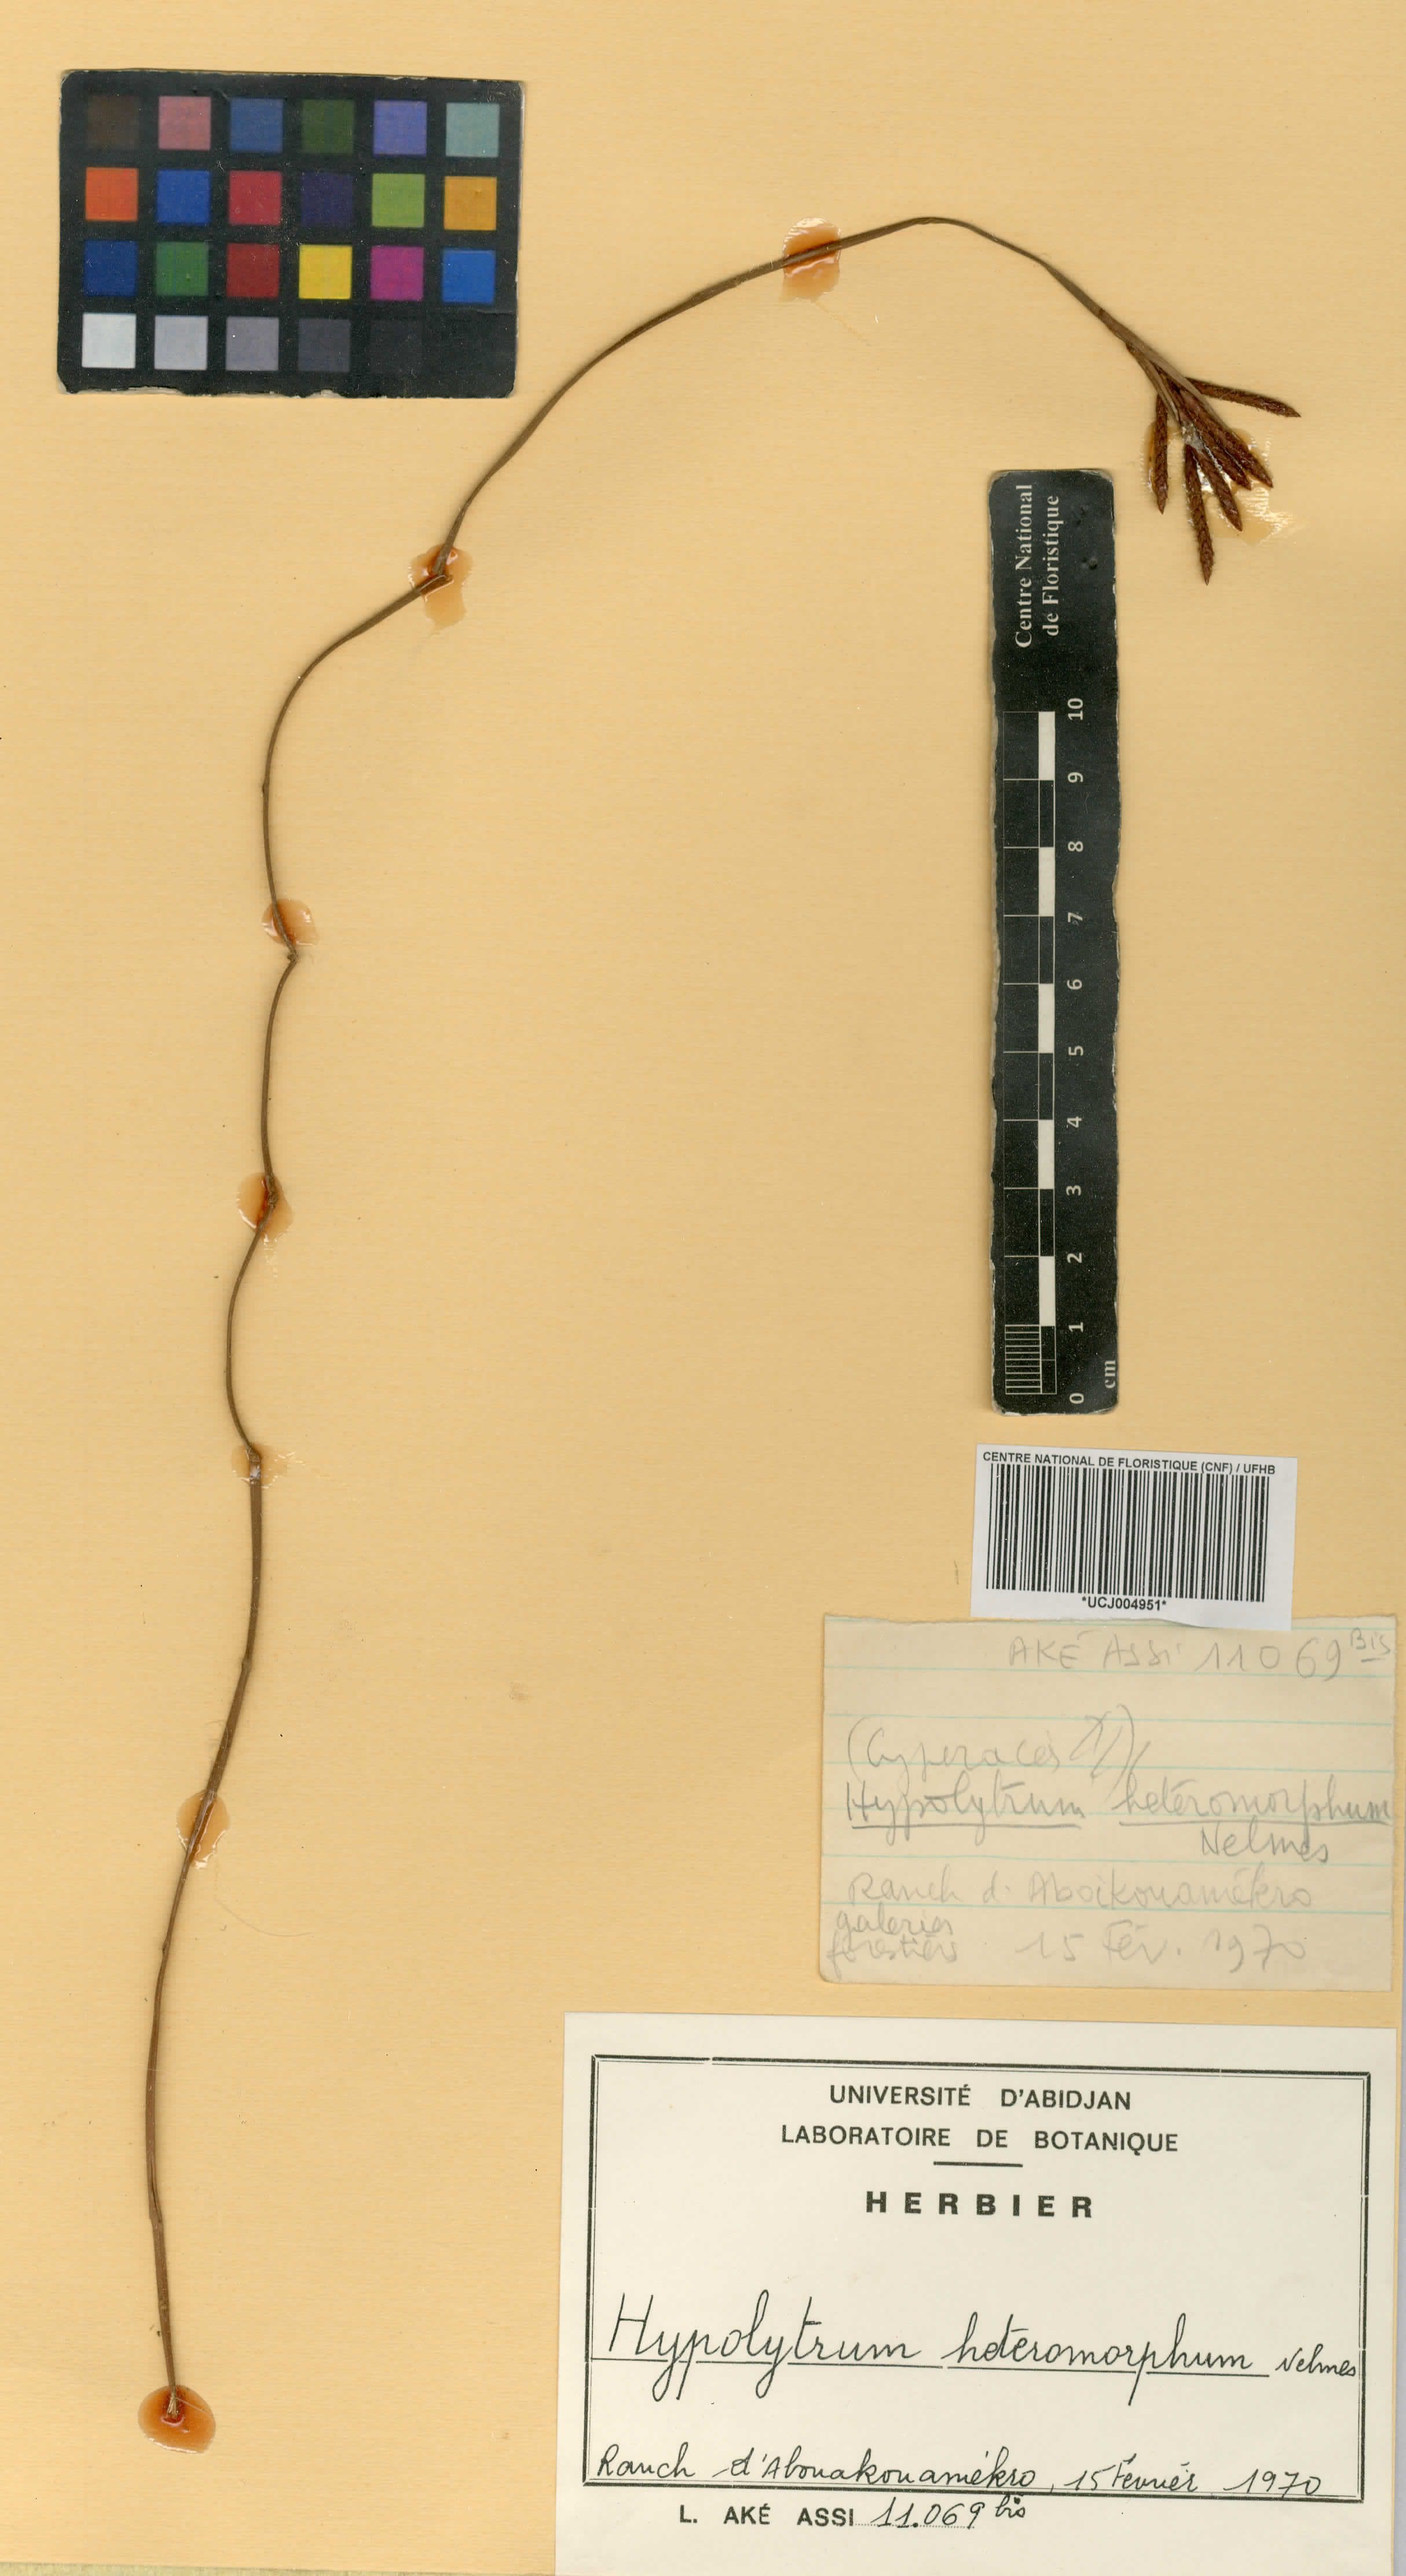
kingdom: Plantae
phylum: Tracheophyta
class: Liliopsida
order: Poales
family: Cyperaceae
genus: Hypolytrum
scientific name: Hypolytrum heteromorphum
